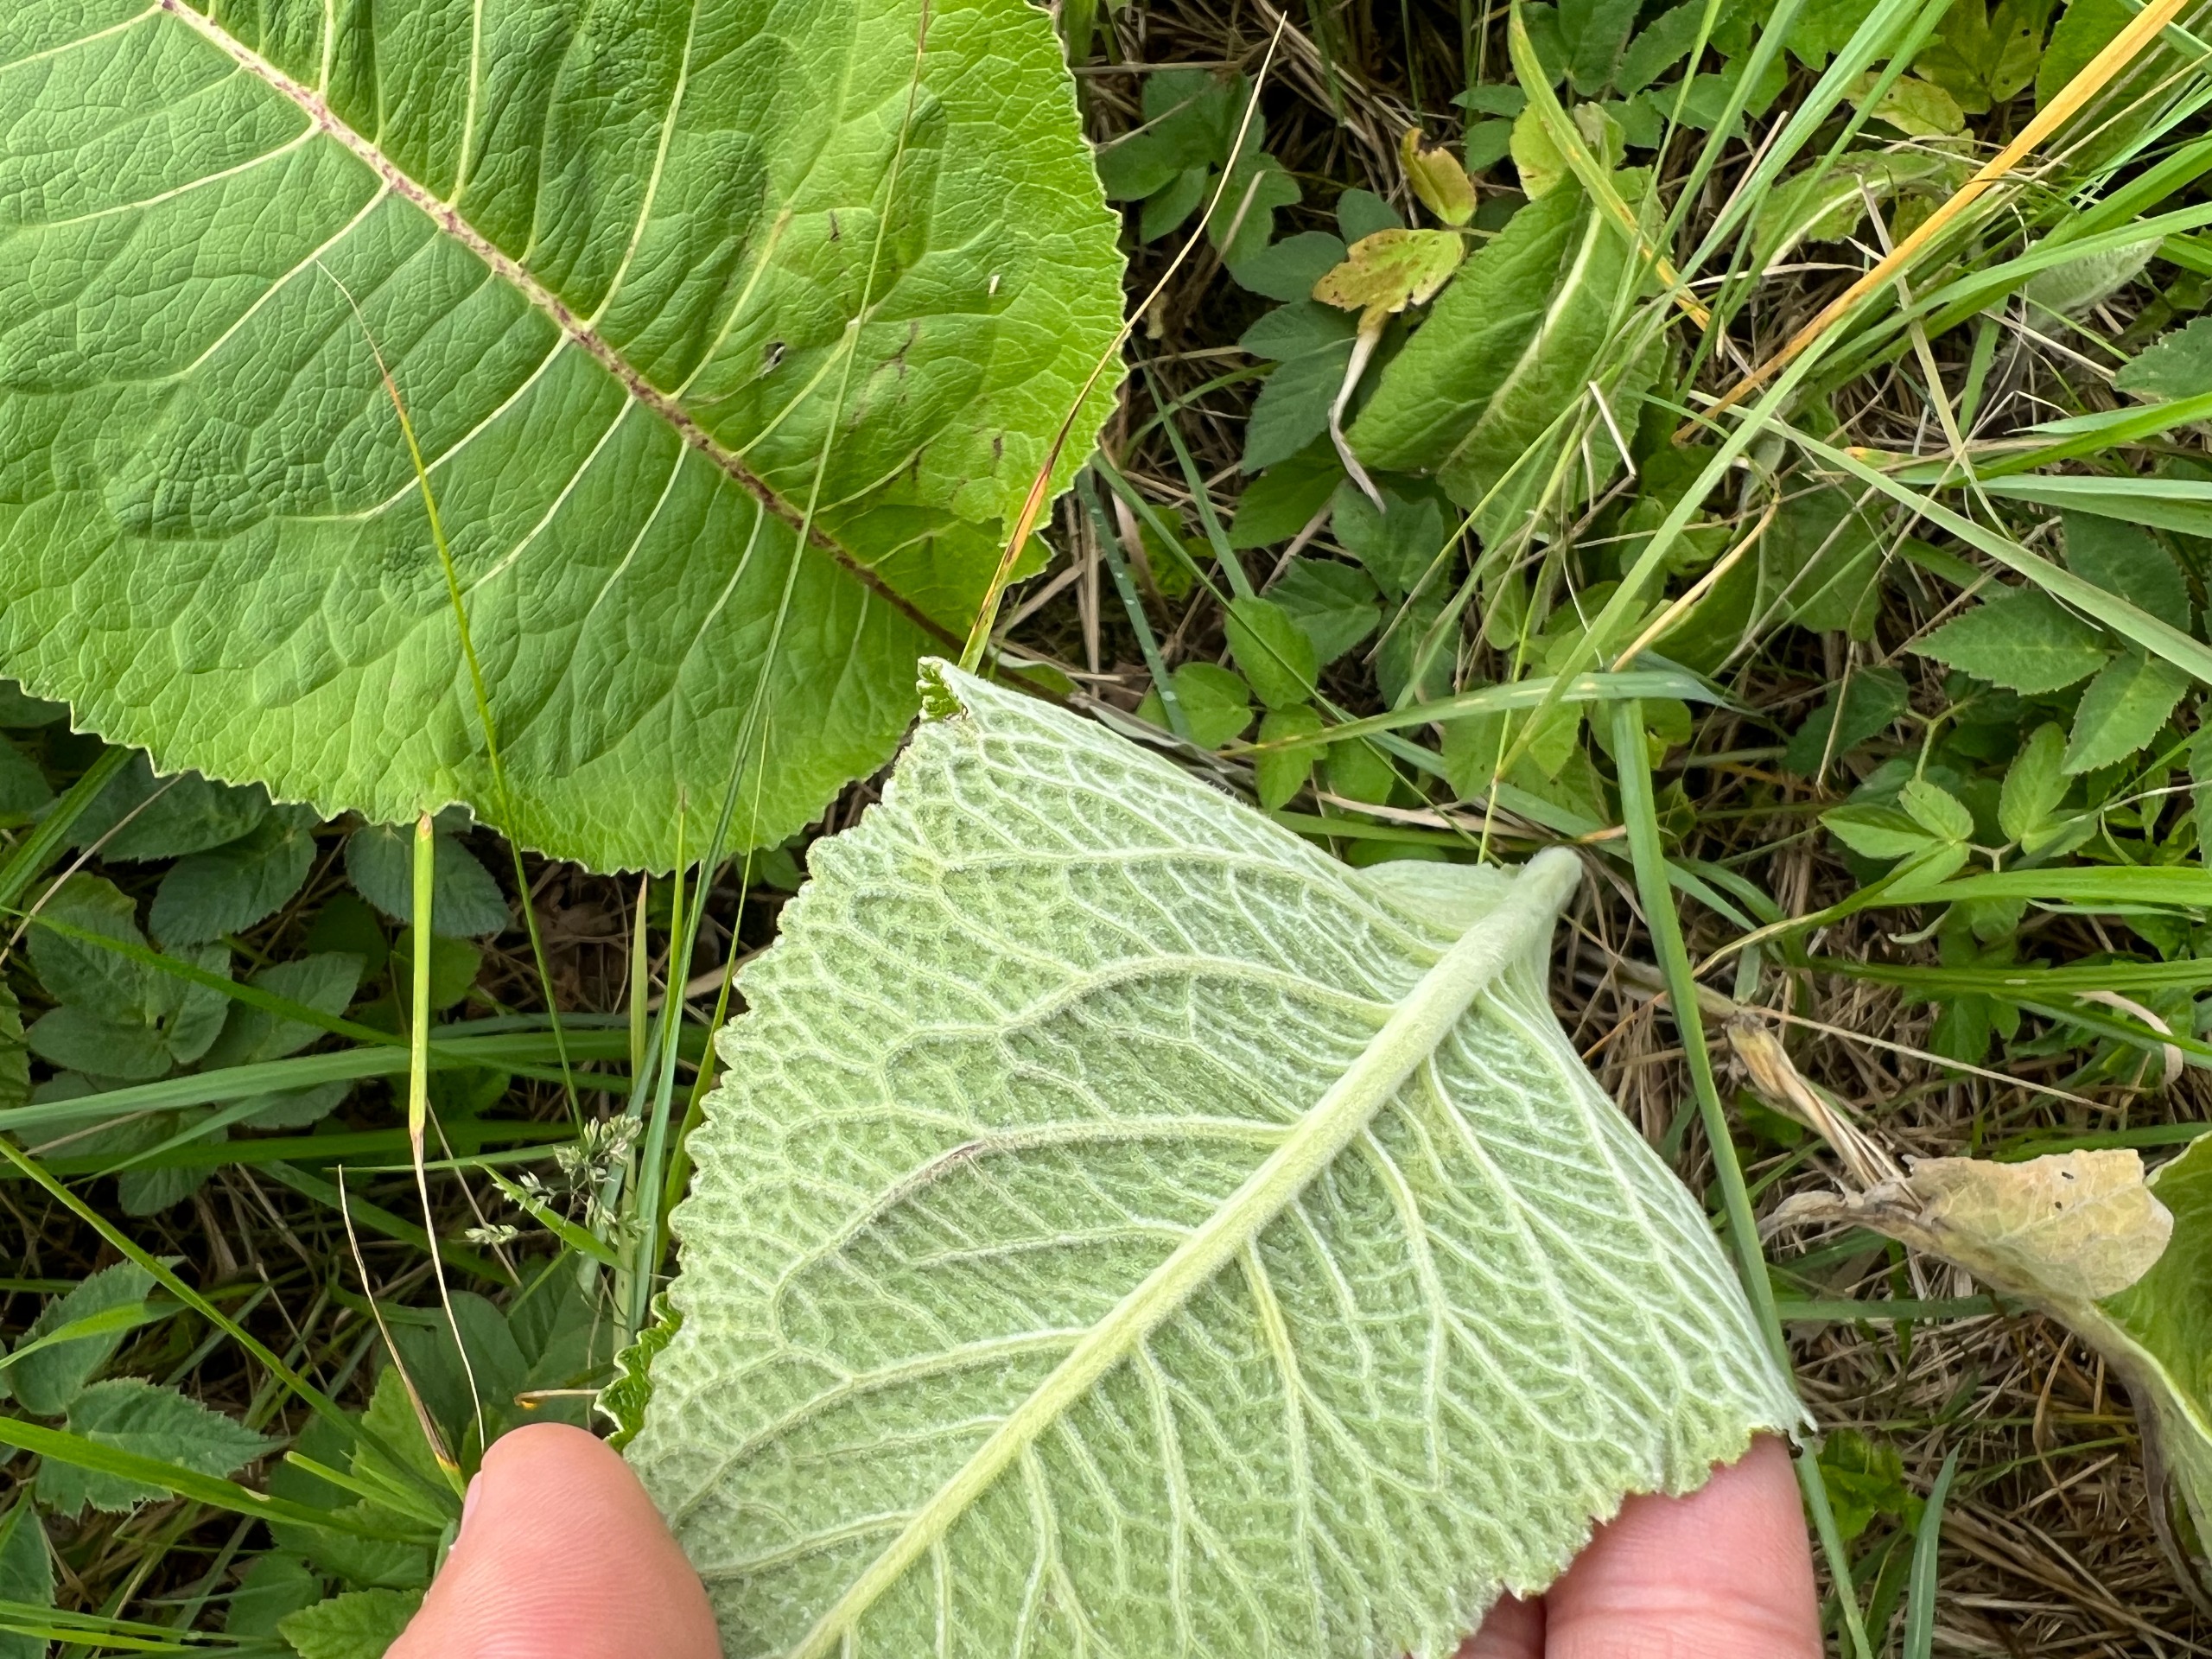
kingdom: Plantae
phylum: Tracheophyta
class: Magnoliopsida
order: Asterales
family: Asteraceae
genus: Inula
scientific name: Inula helenium
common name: Læge-alant
